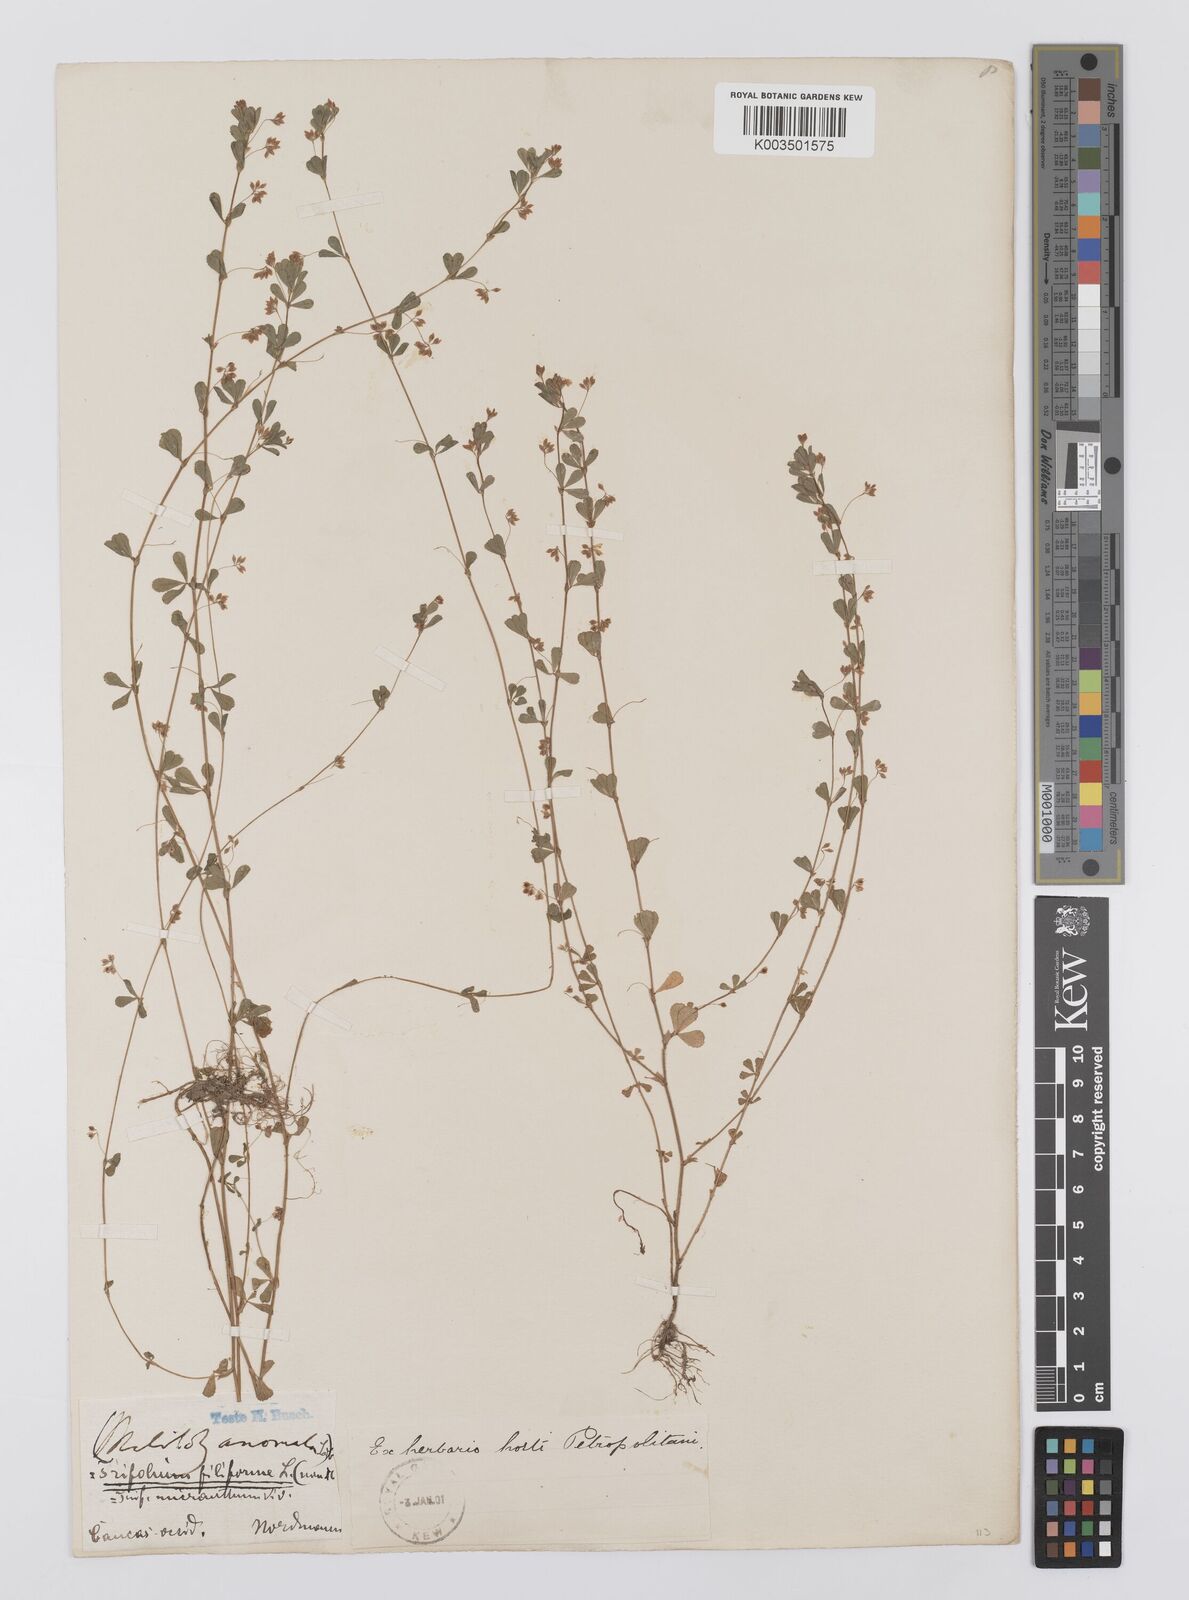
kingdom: Plantae
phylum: Tracheophyta
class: Magnoliopsida
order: Fabales
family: Fabaceae
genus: Trifolium
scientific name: Trifolium micranthum
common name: Slender trefoil
